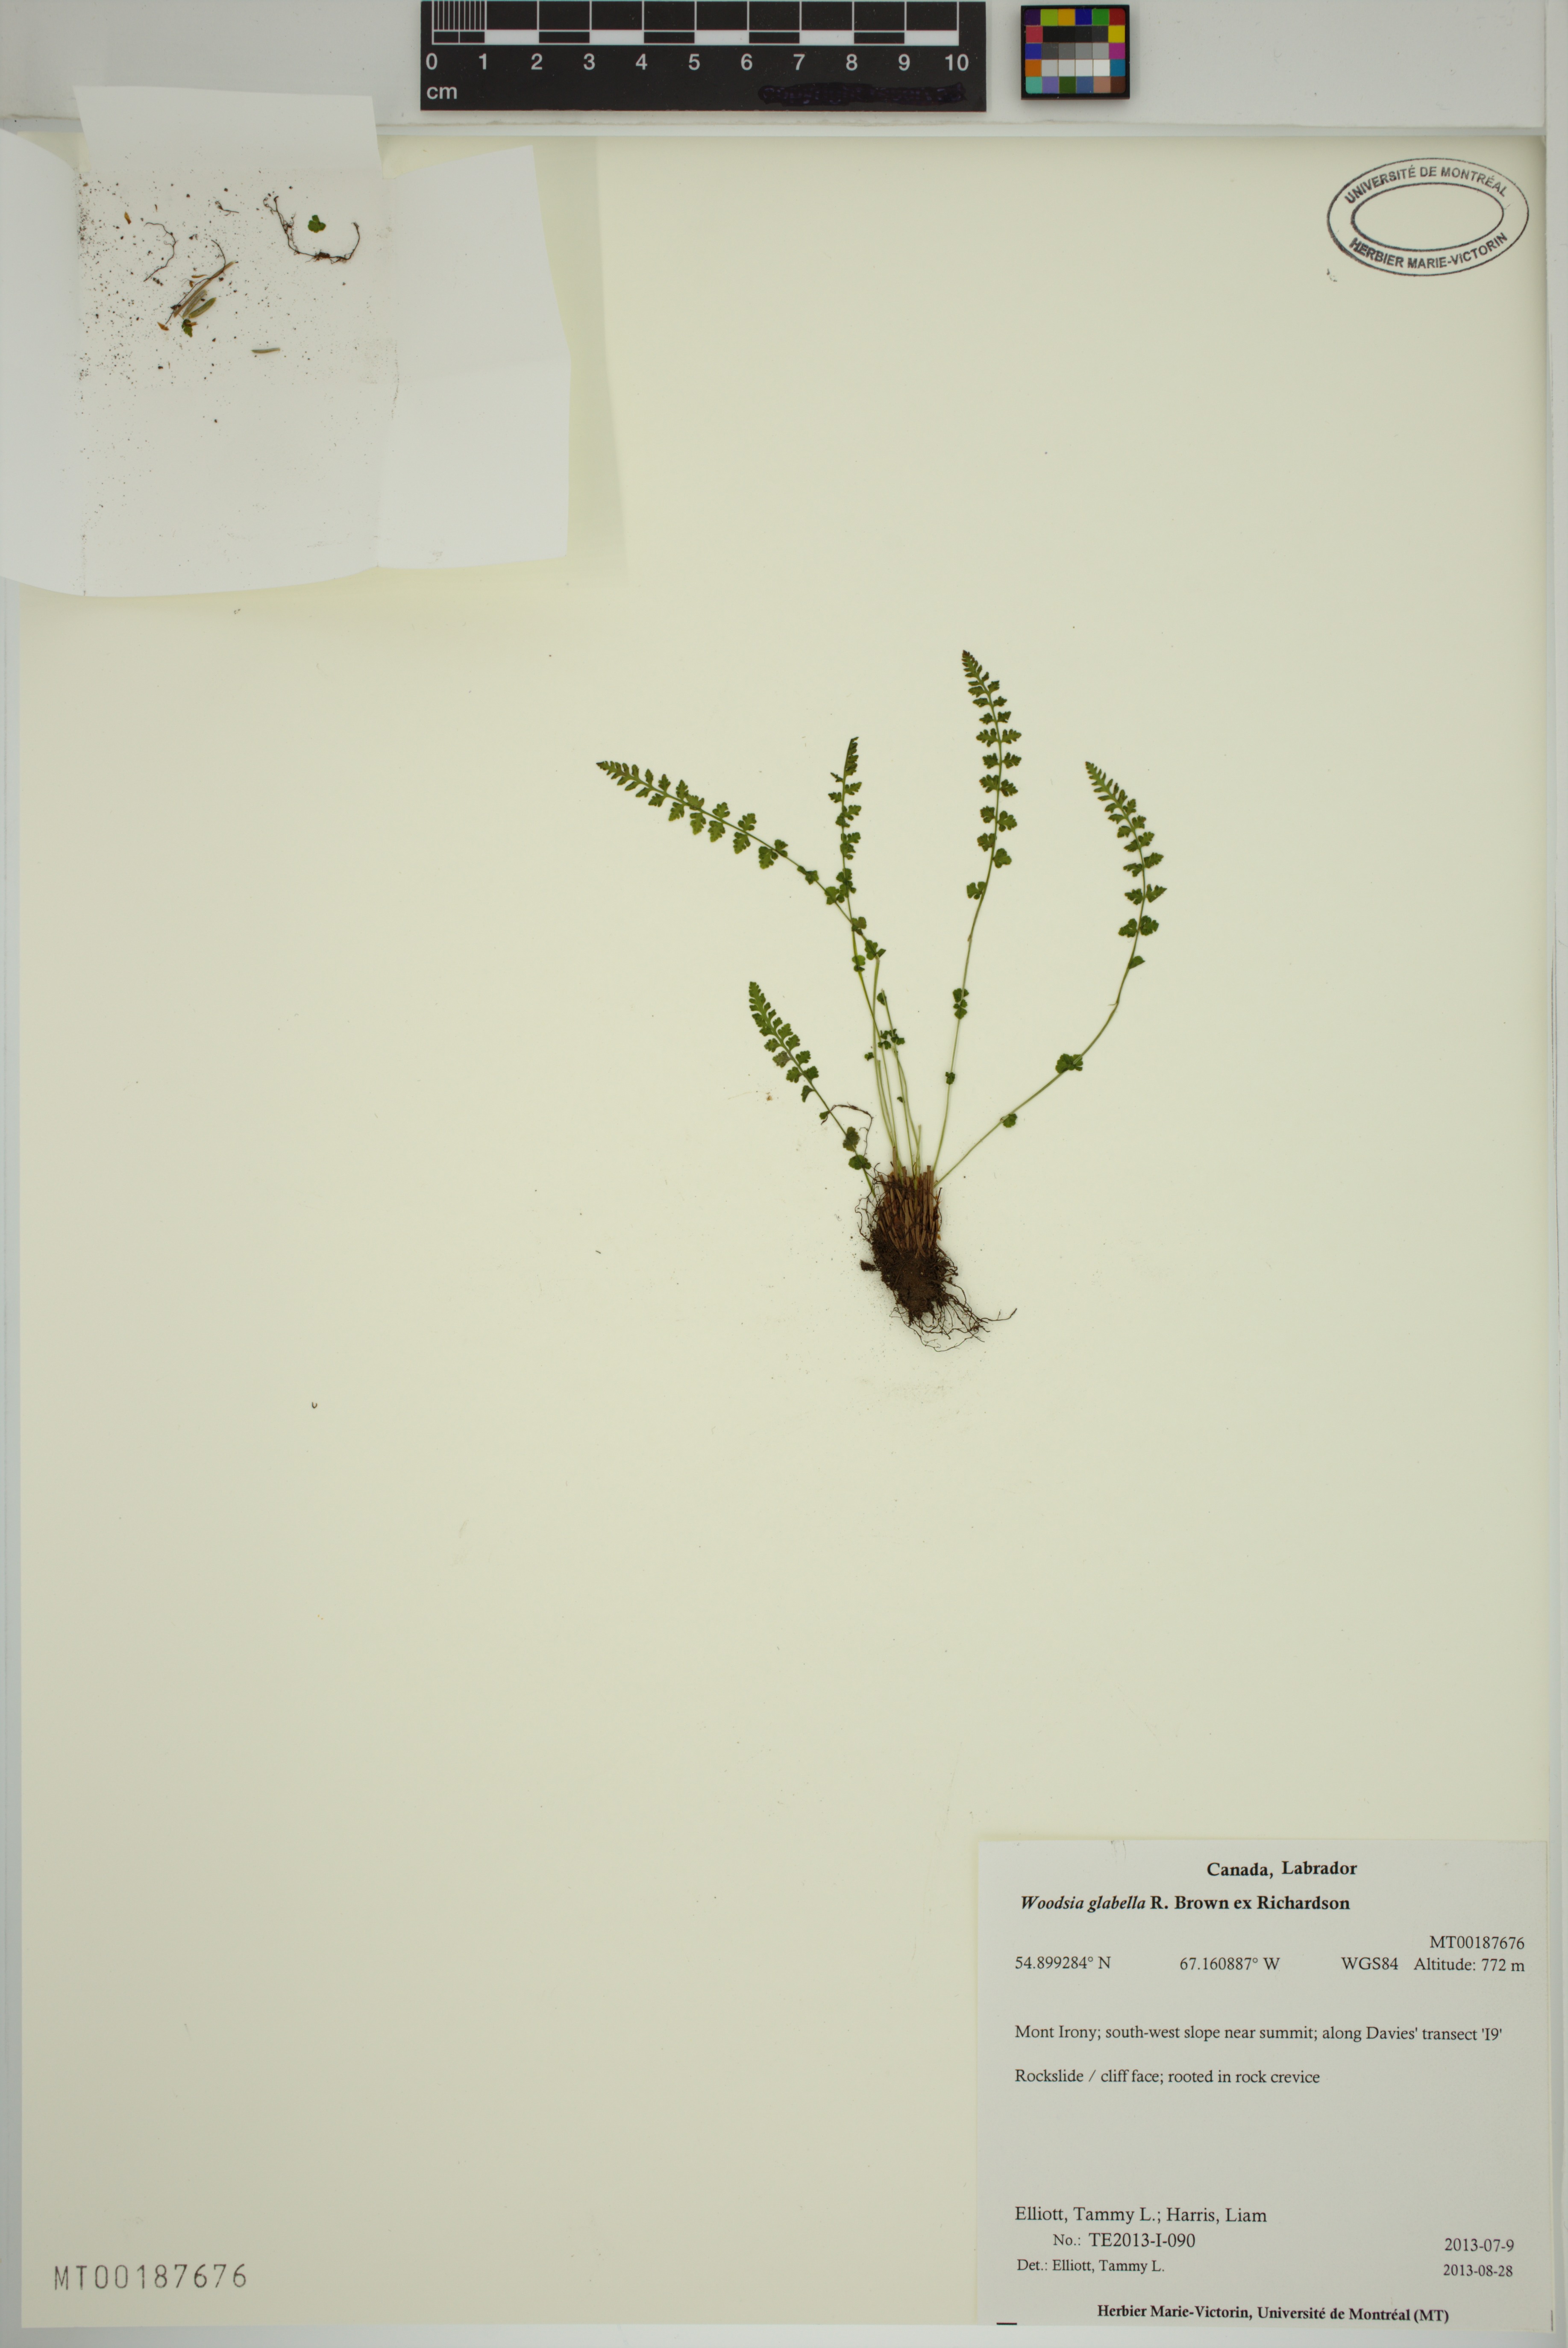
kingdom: Plantae
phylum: Tracheophyta
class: Polypodiopsida
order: Polypodiales
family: Woodsiaceae
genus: Woodsia
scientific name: Woodsia glabella
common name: Smooth woodsia
